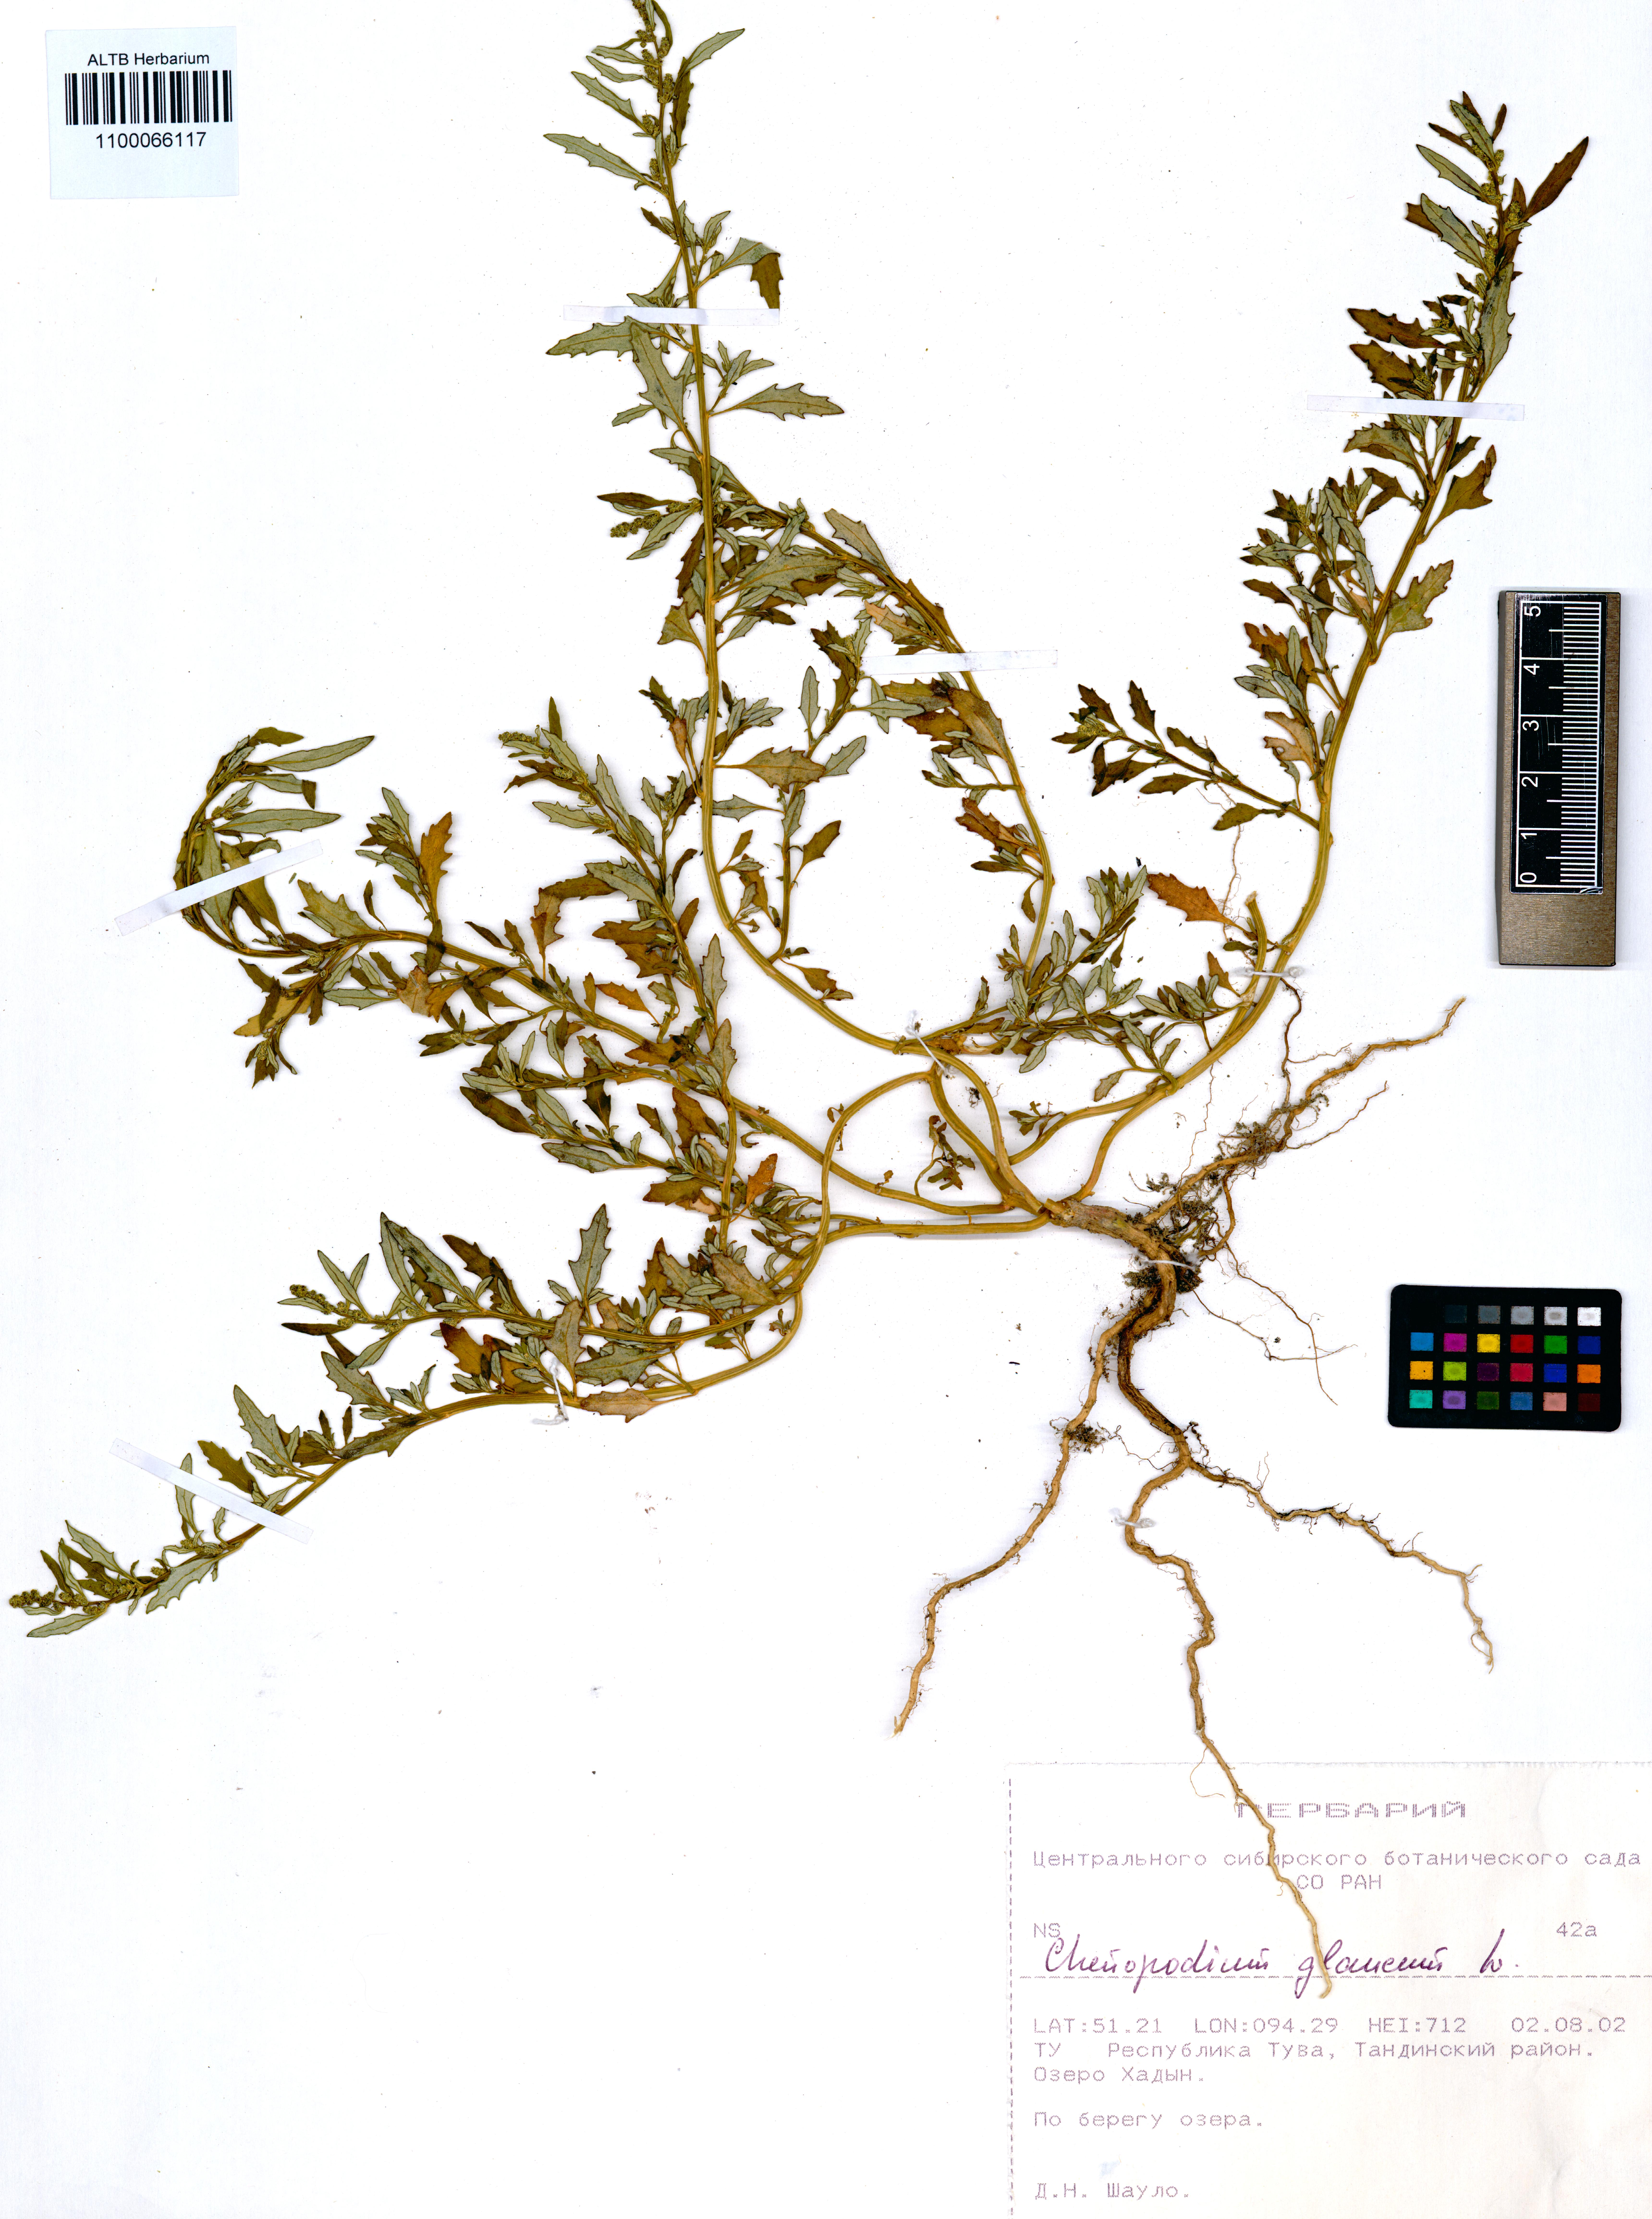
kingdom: Plantae
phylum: Tracheophyta
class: Magnoliopsida
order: Caryophyllales
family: Amaranthaceae
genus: Oxybasis
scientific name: Oxybasis glauca
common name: Glaucous goosefoot
